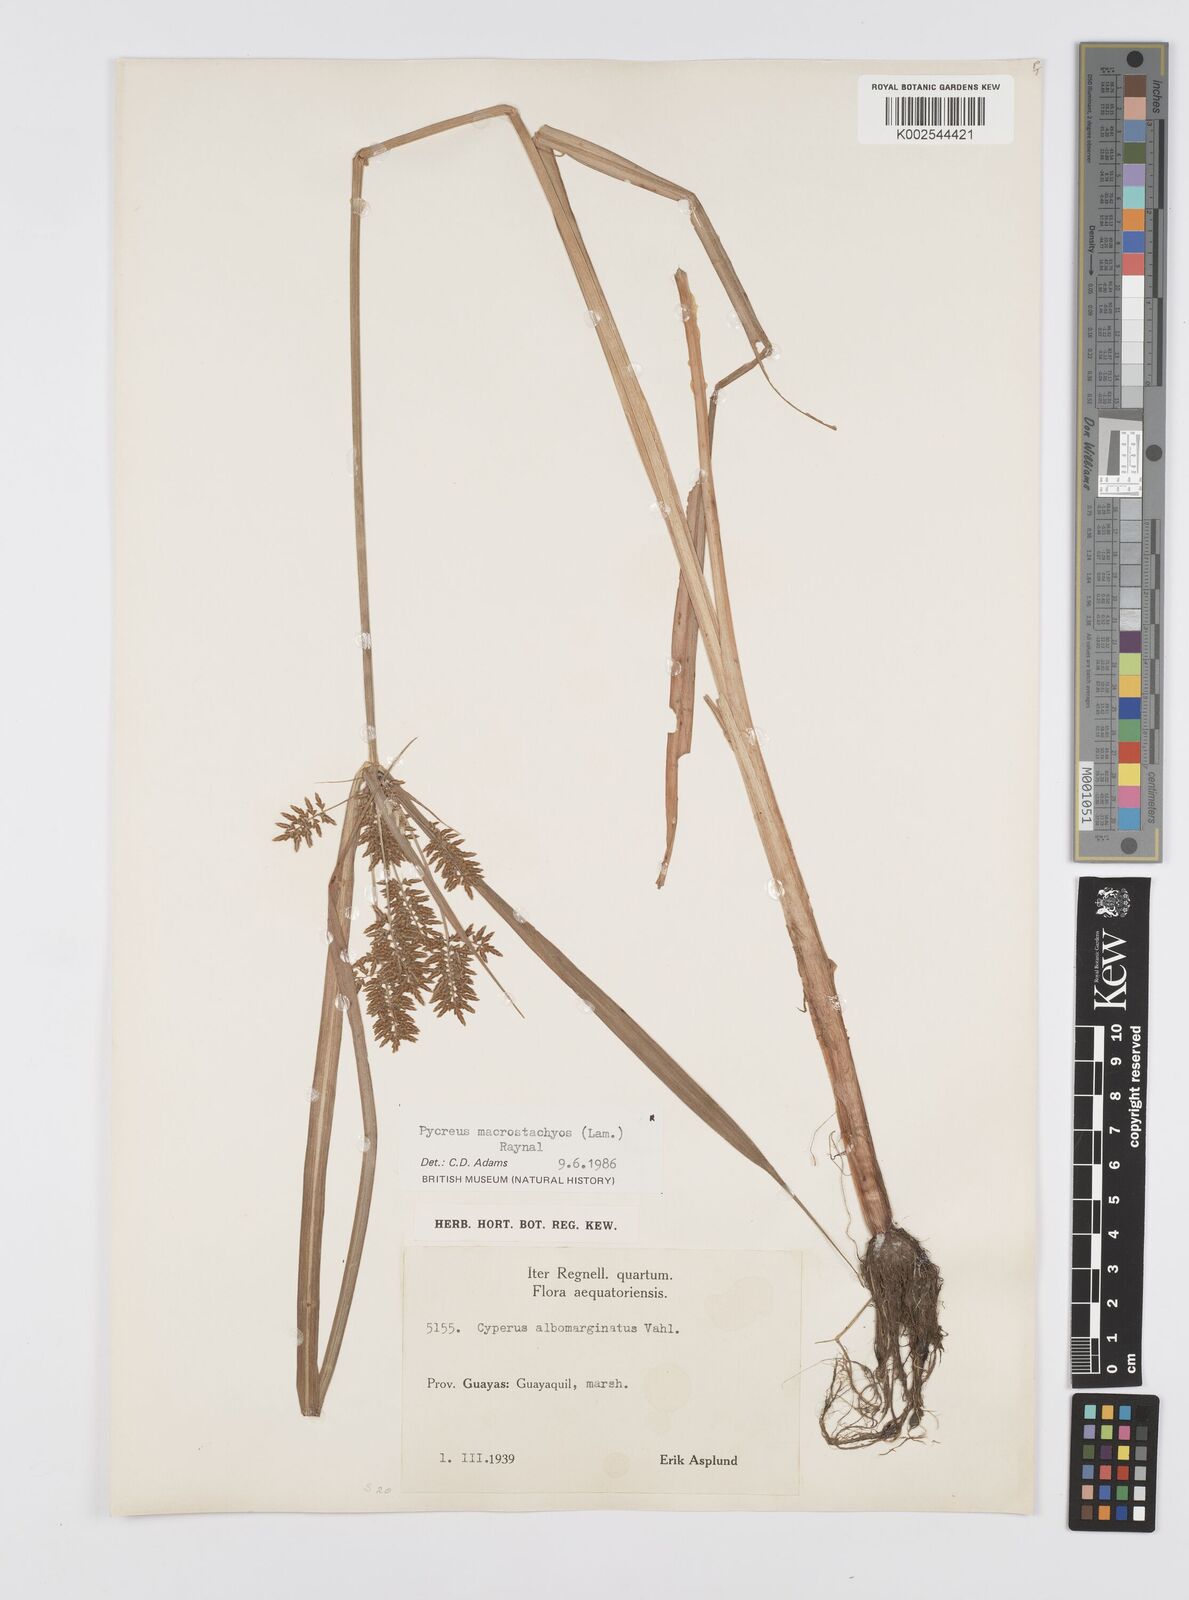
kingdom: Plantae
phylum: Tracheophyta
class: Liliopsida
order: Poales
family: Cyperaceae
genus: Cyperus
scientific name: Cyperus macrostachyos
